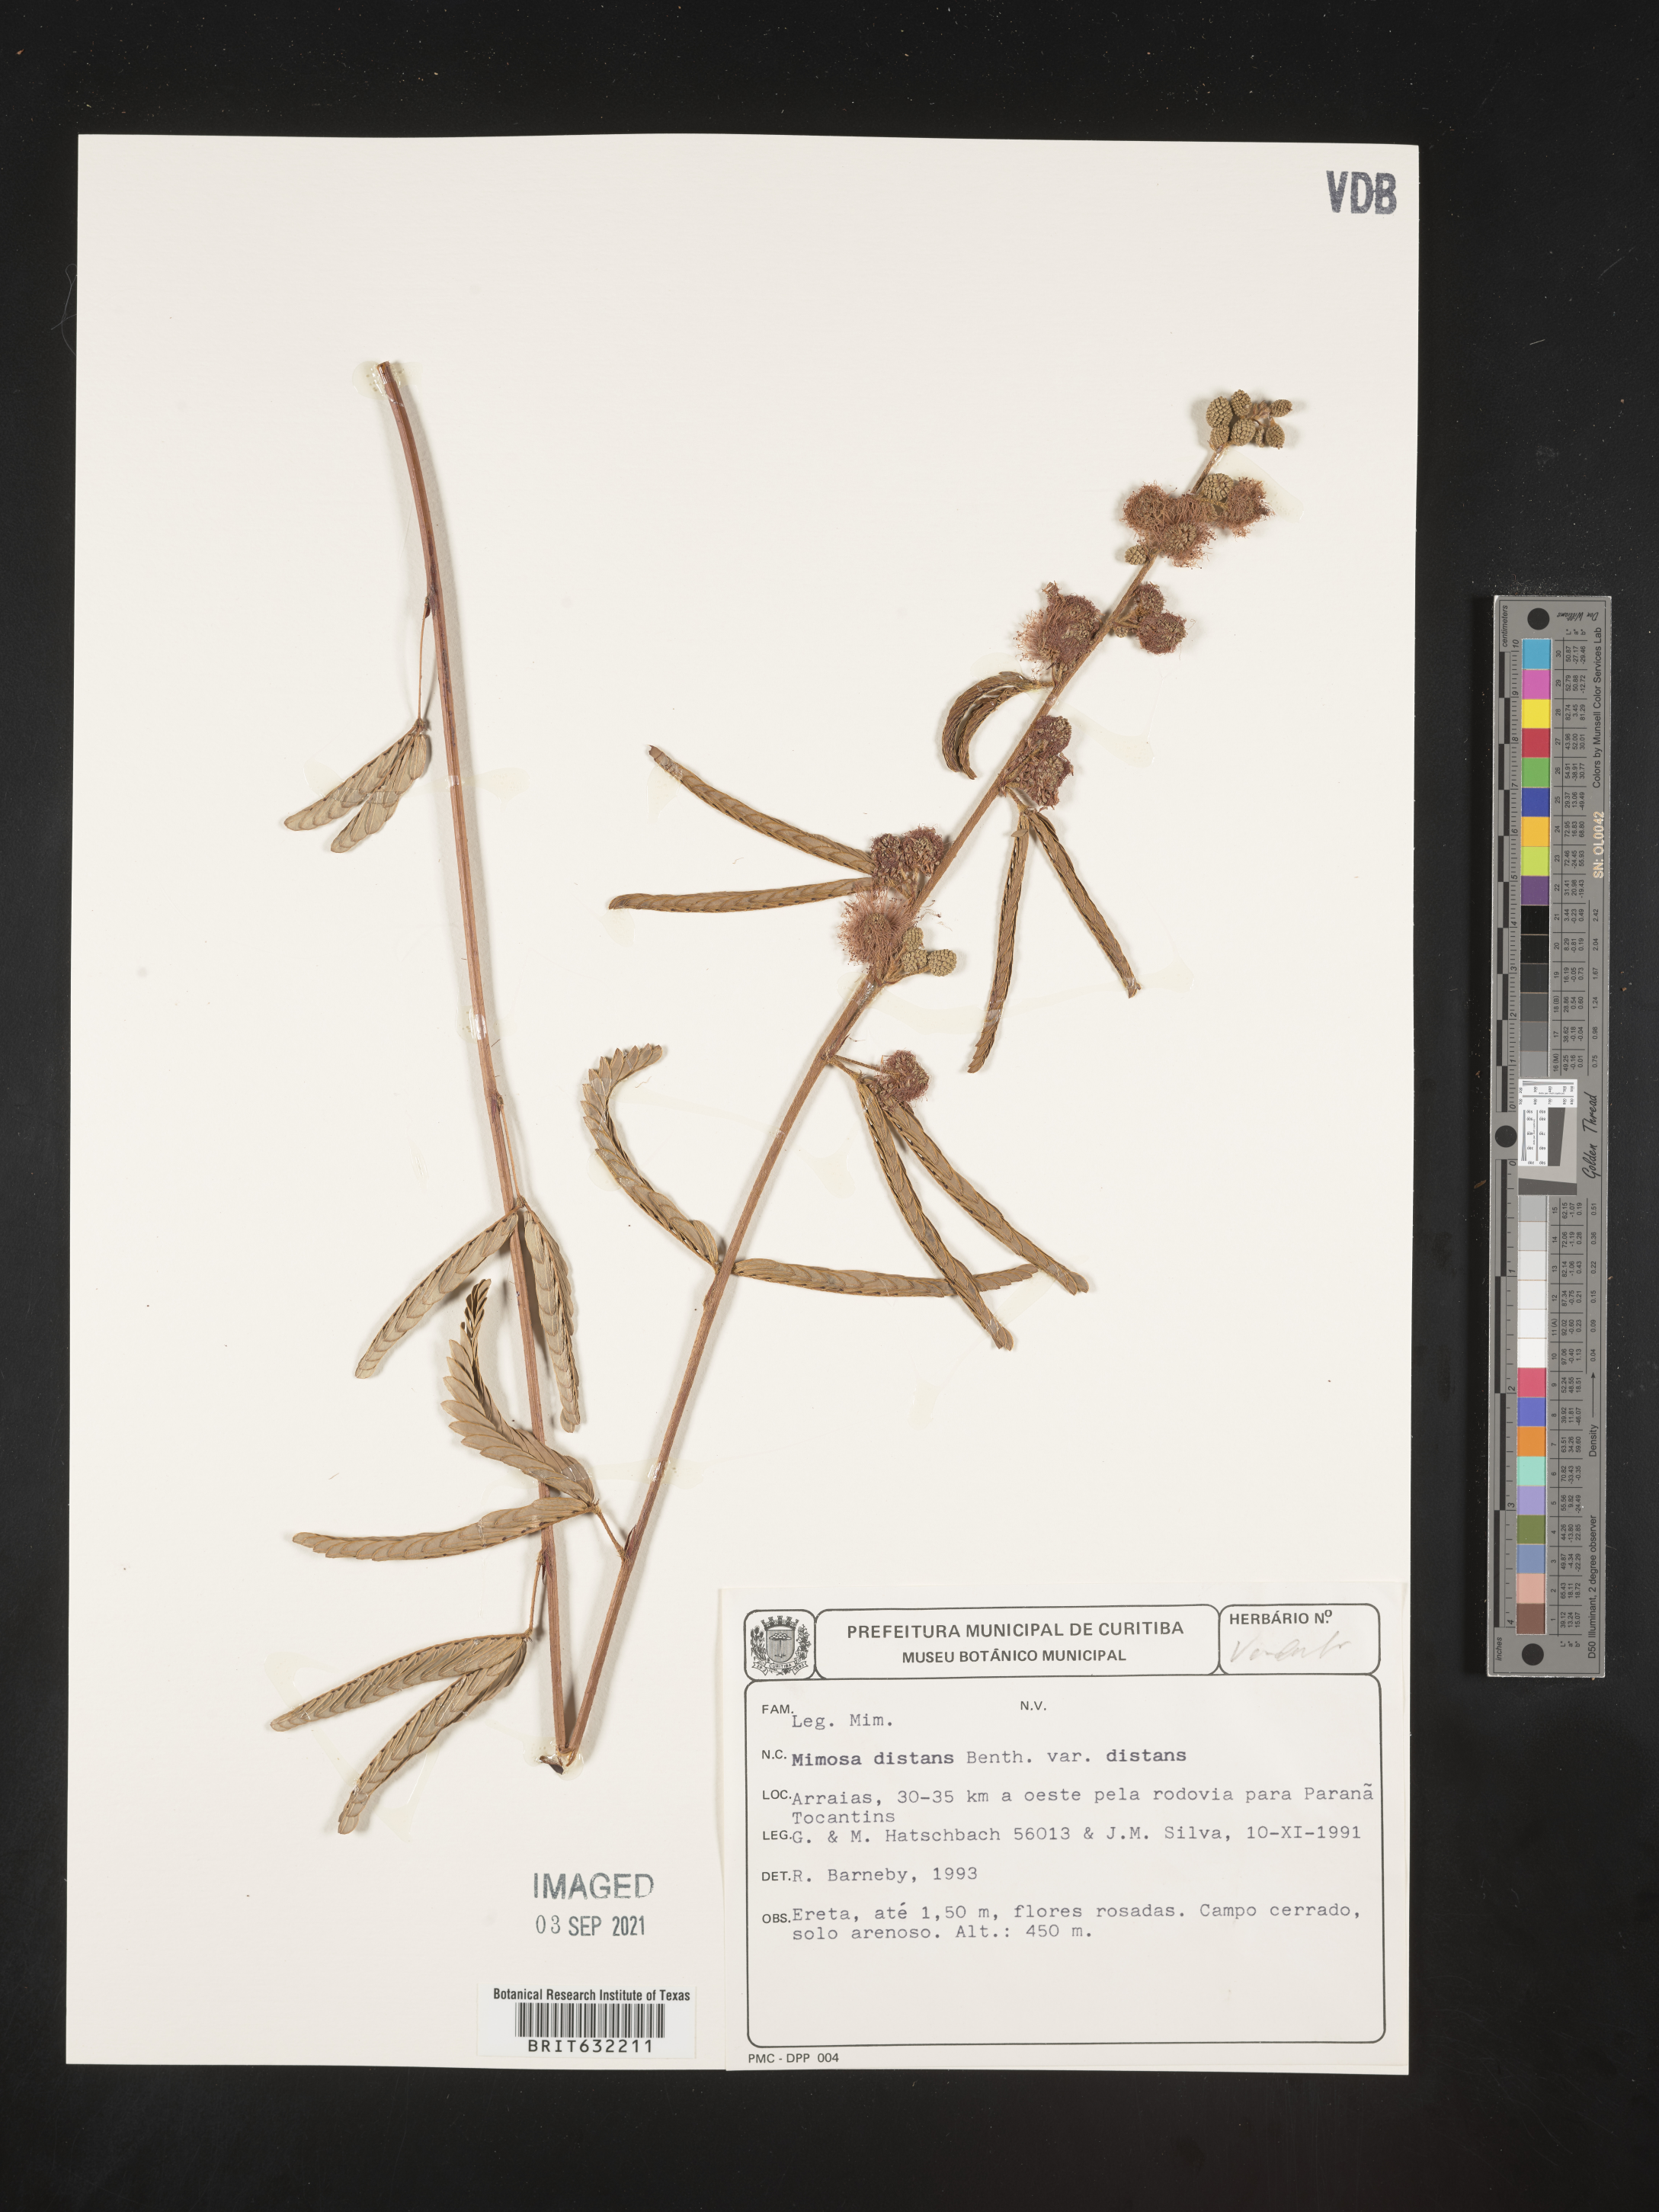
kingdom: Plantae
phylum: Tracheophyta
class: Magnoliopsida
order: Fabales
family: Fabaceae
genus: Mimosa
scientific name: Mimosa
